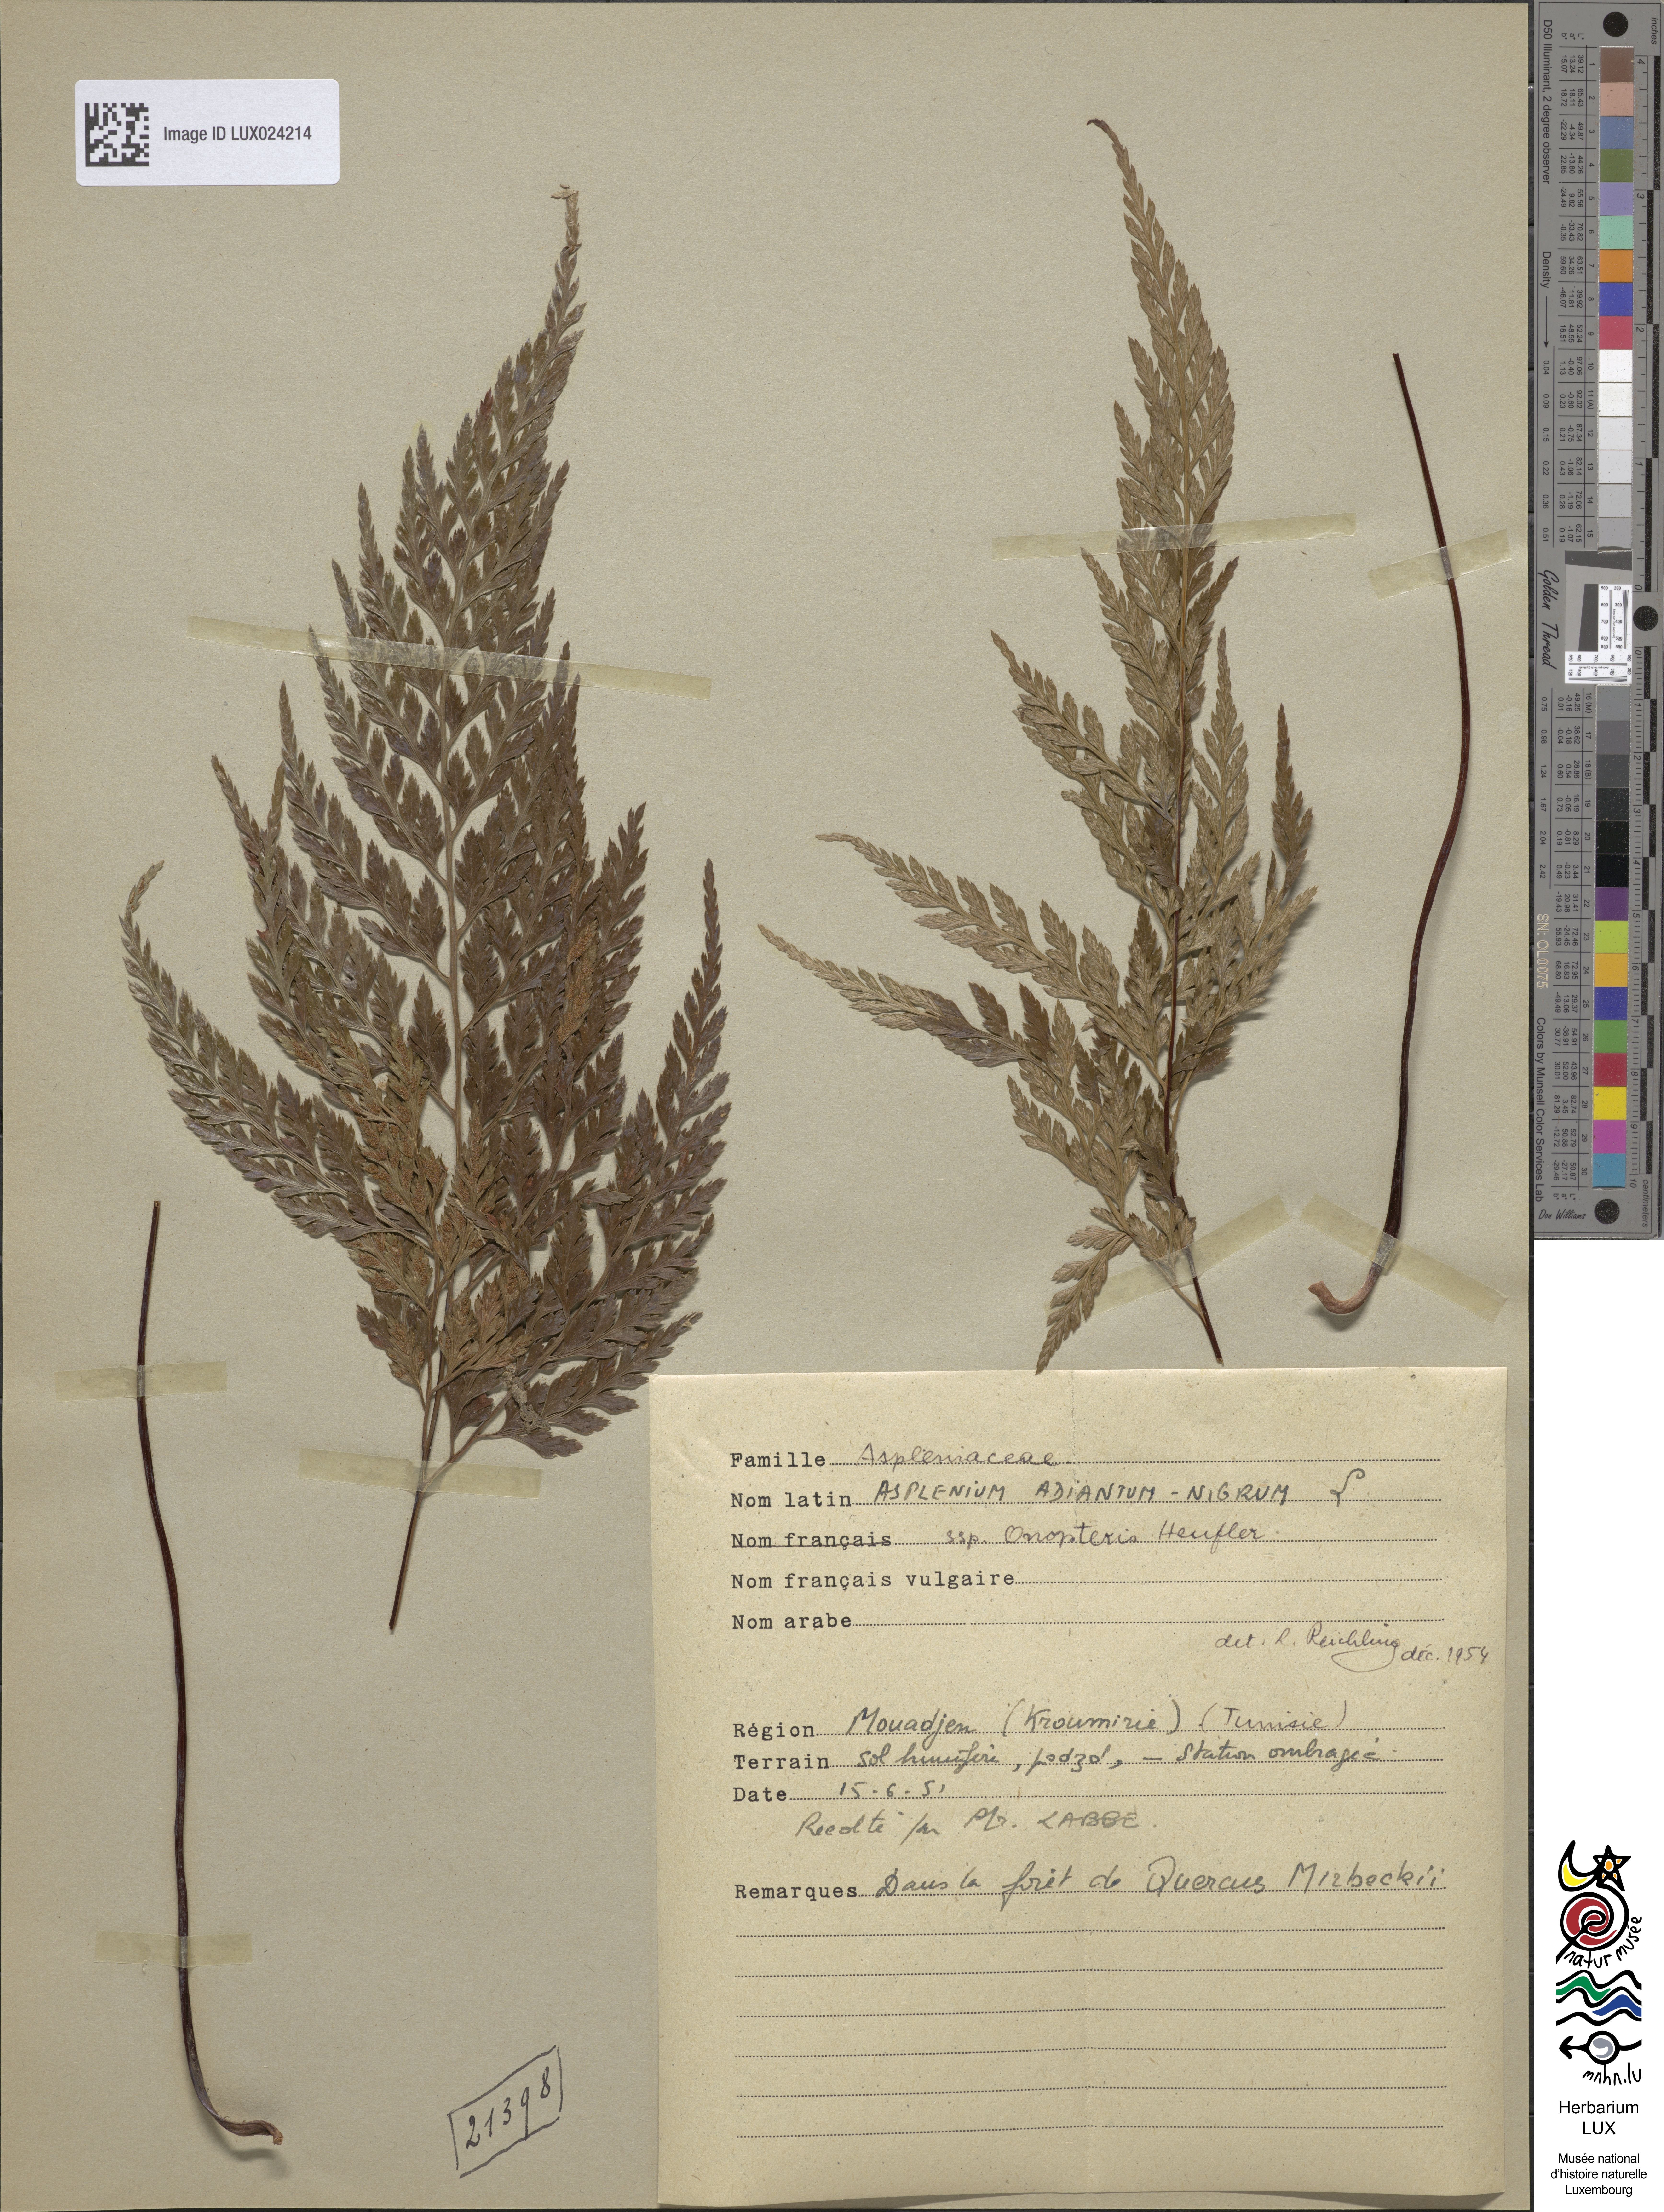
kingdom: Plantae
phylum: Tracheophyta
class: Polypodiopsida
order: Polypodiales
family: Aspleniaceae
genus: Asplenium
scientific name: Asplenium onopteris
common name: Irish spleenwort
